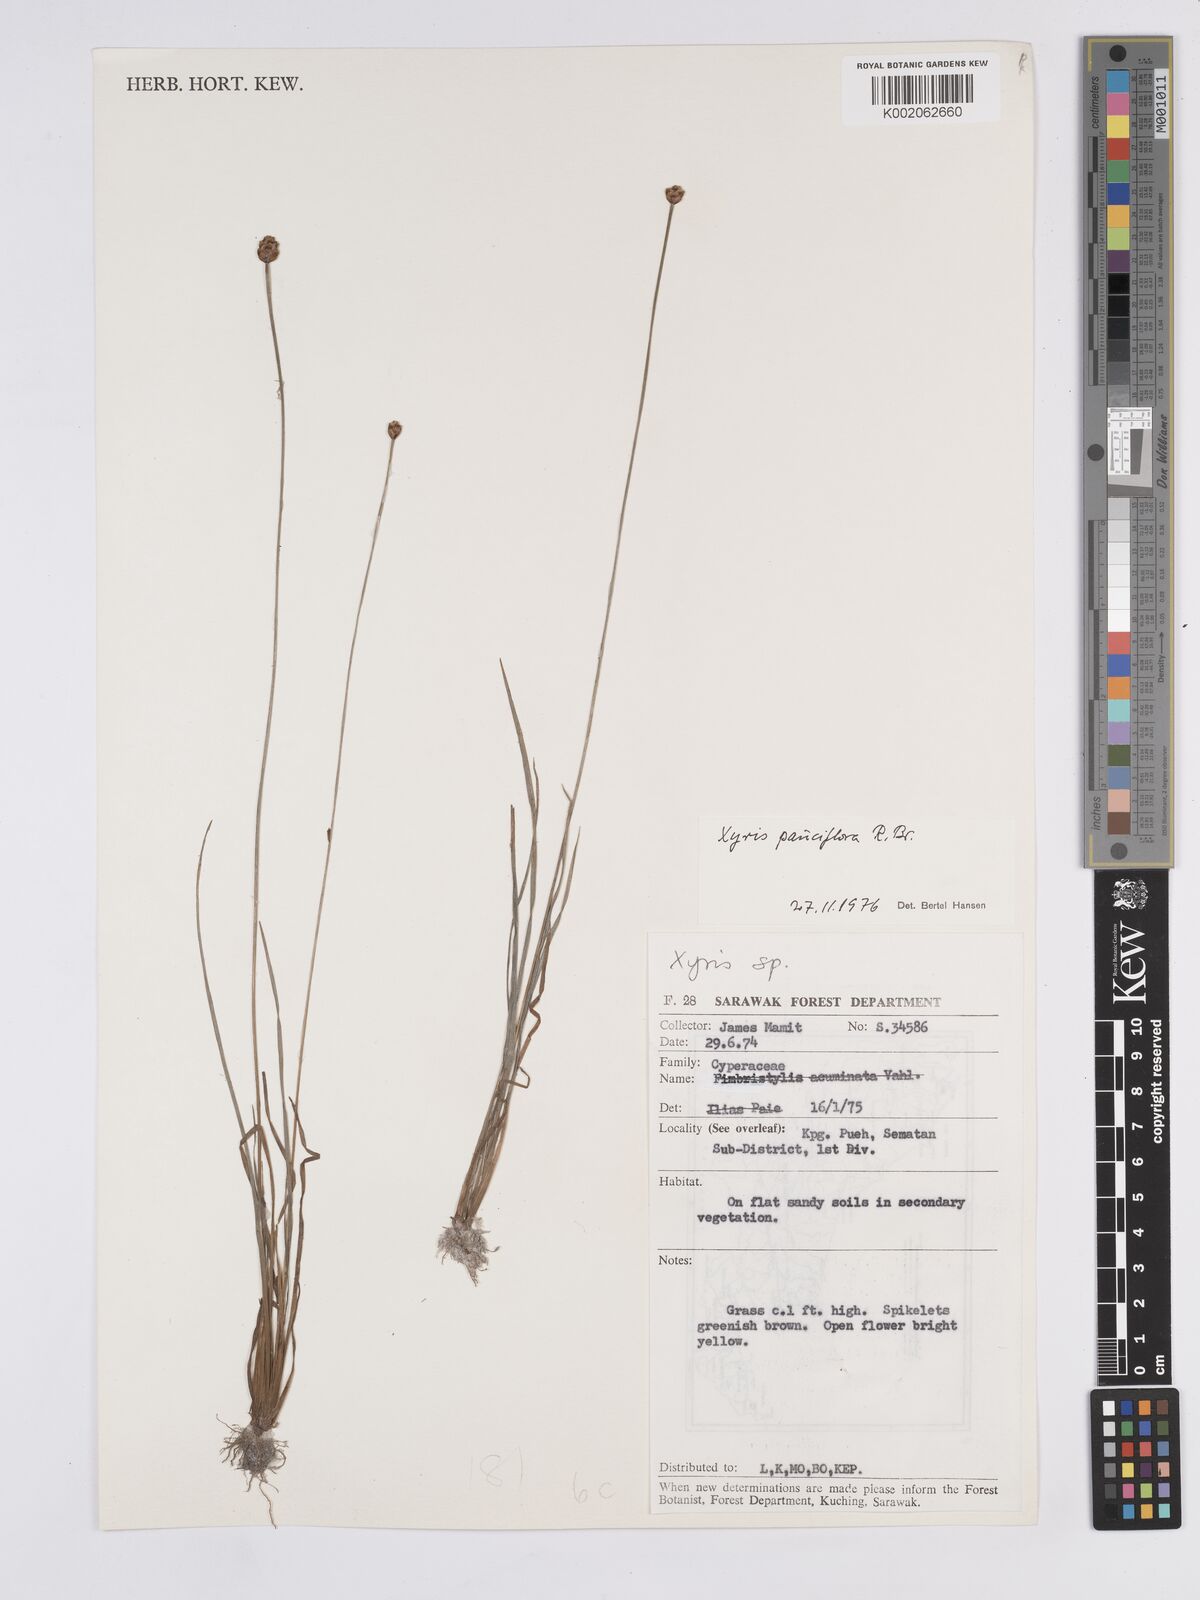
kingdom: Plantae
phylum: Tracheophyta
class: Liliopsida
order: Poales
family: Xyridaceae
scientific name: Xyridaceae
